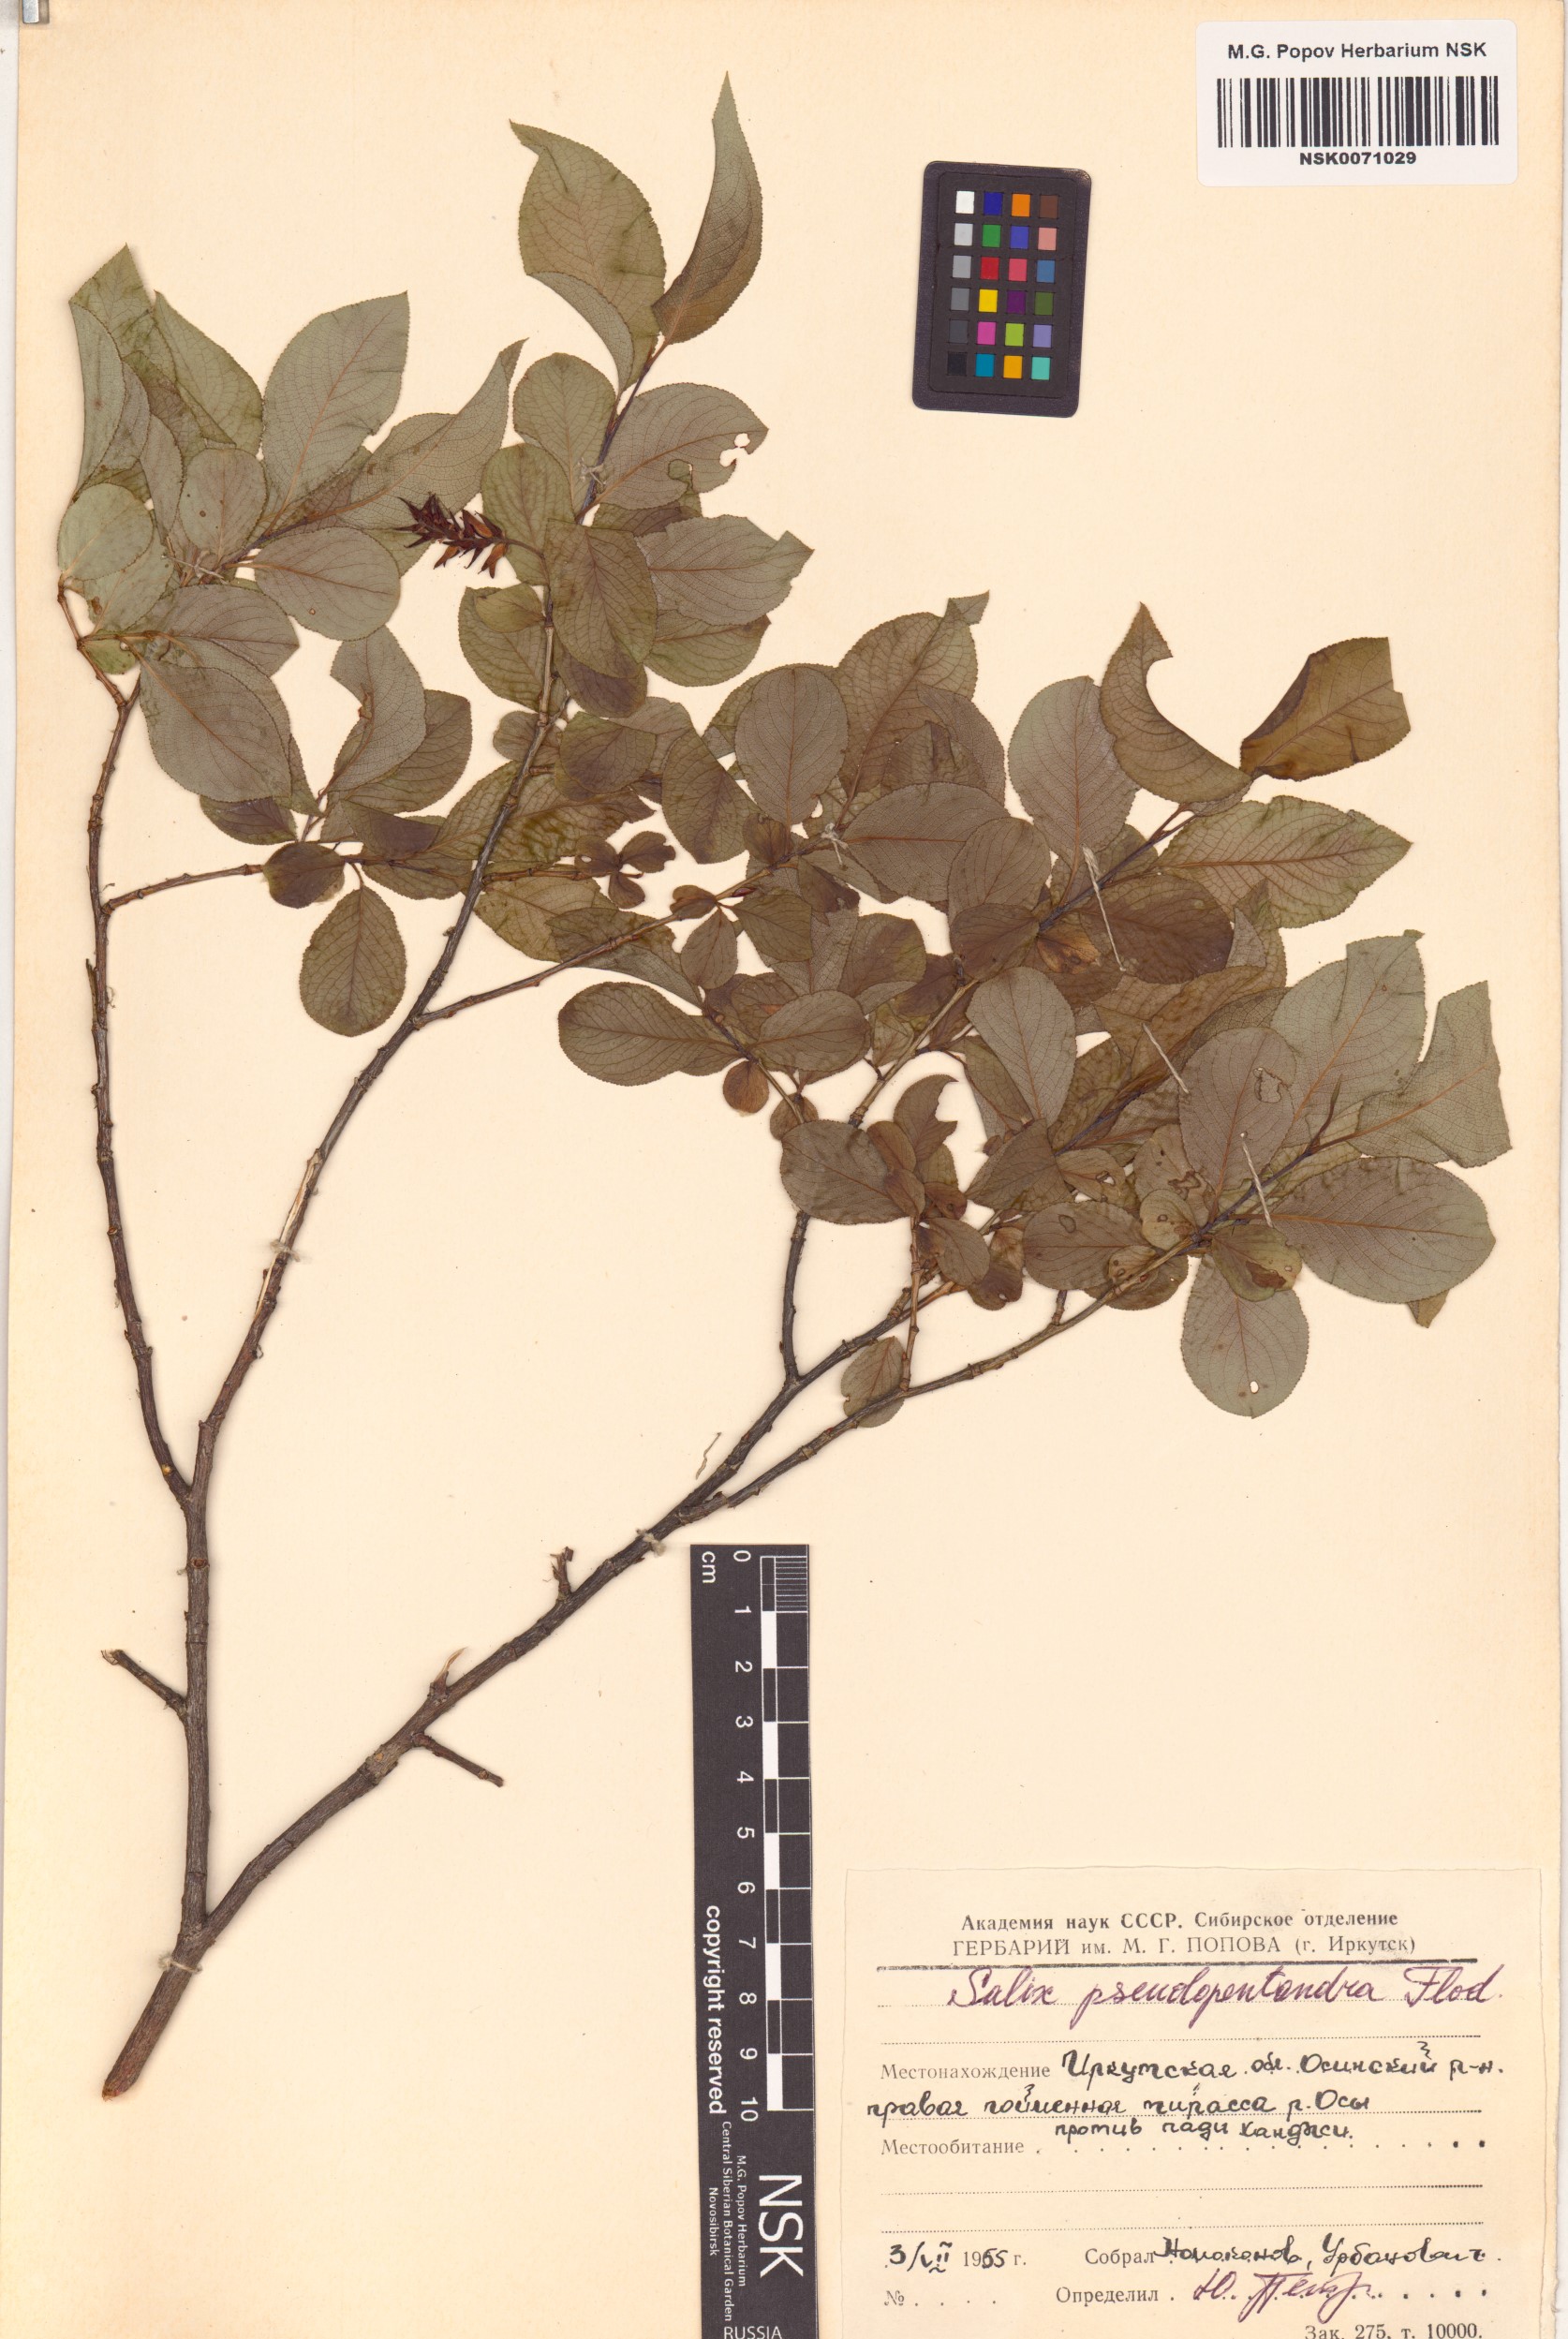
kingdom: Plantae
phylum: Tracheophyta
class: Magnoliopsida
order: Malpighiales
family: Salicaceae
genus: Salix
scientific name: Salix pseudopentandra
